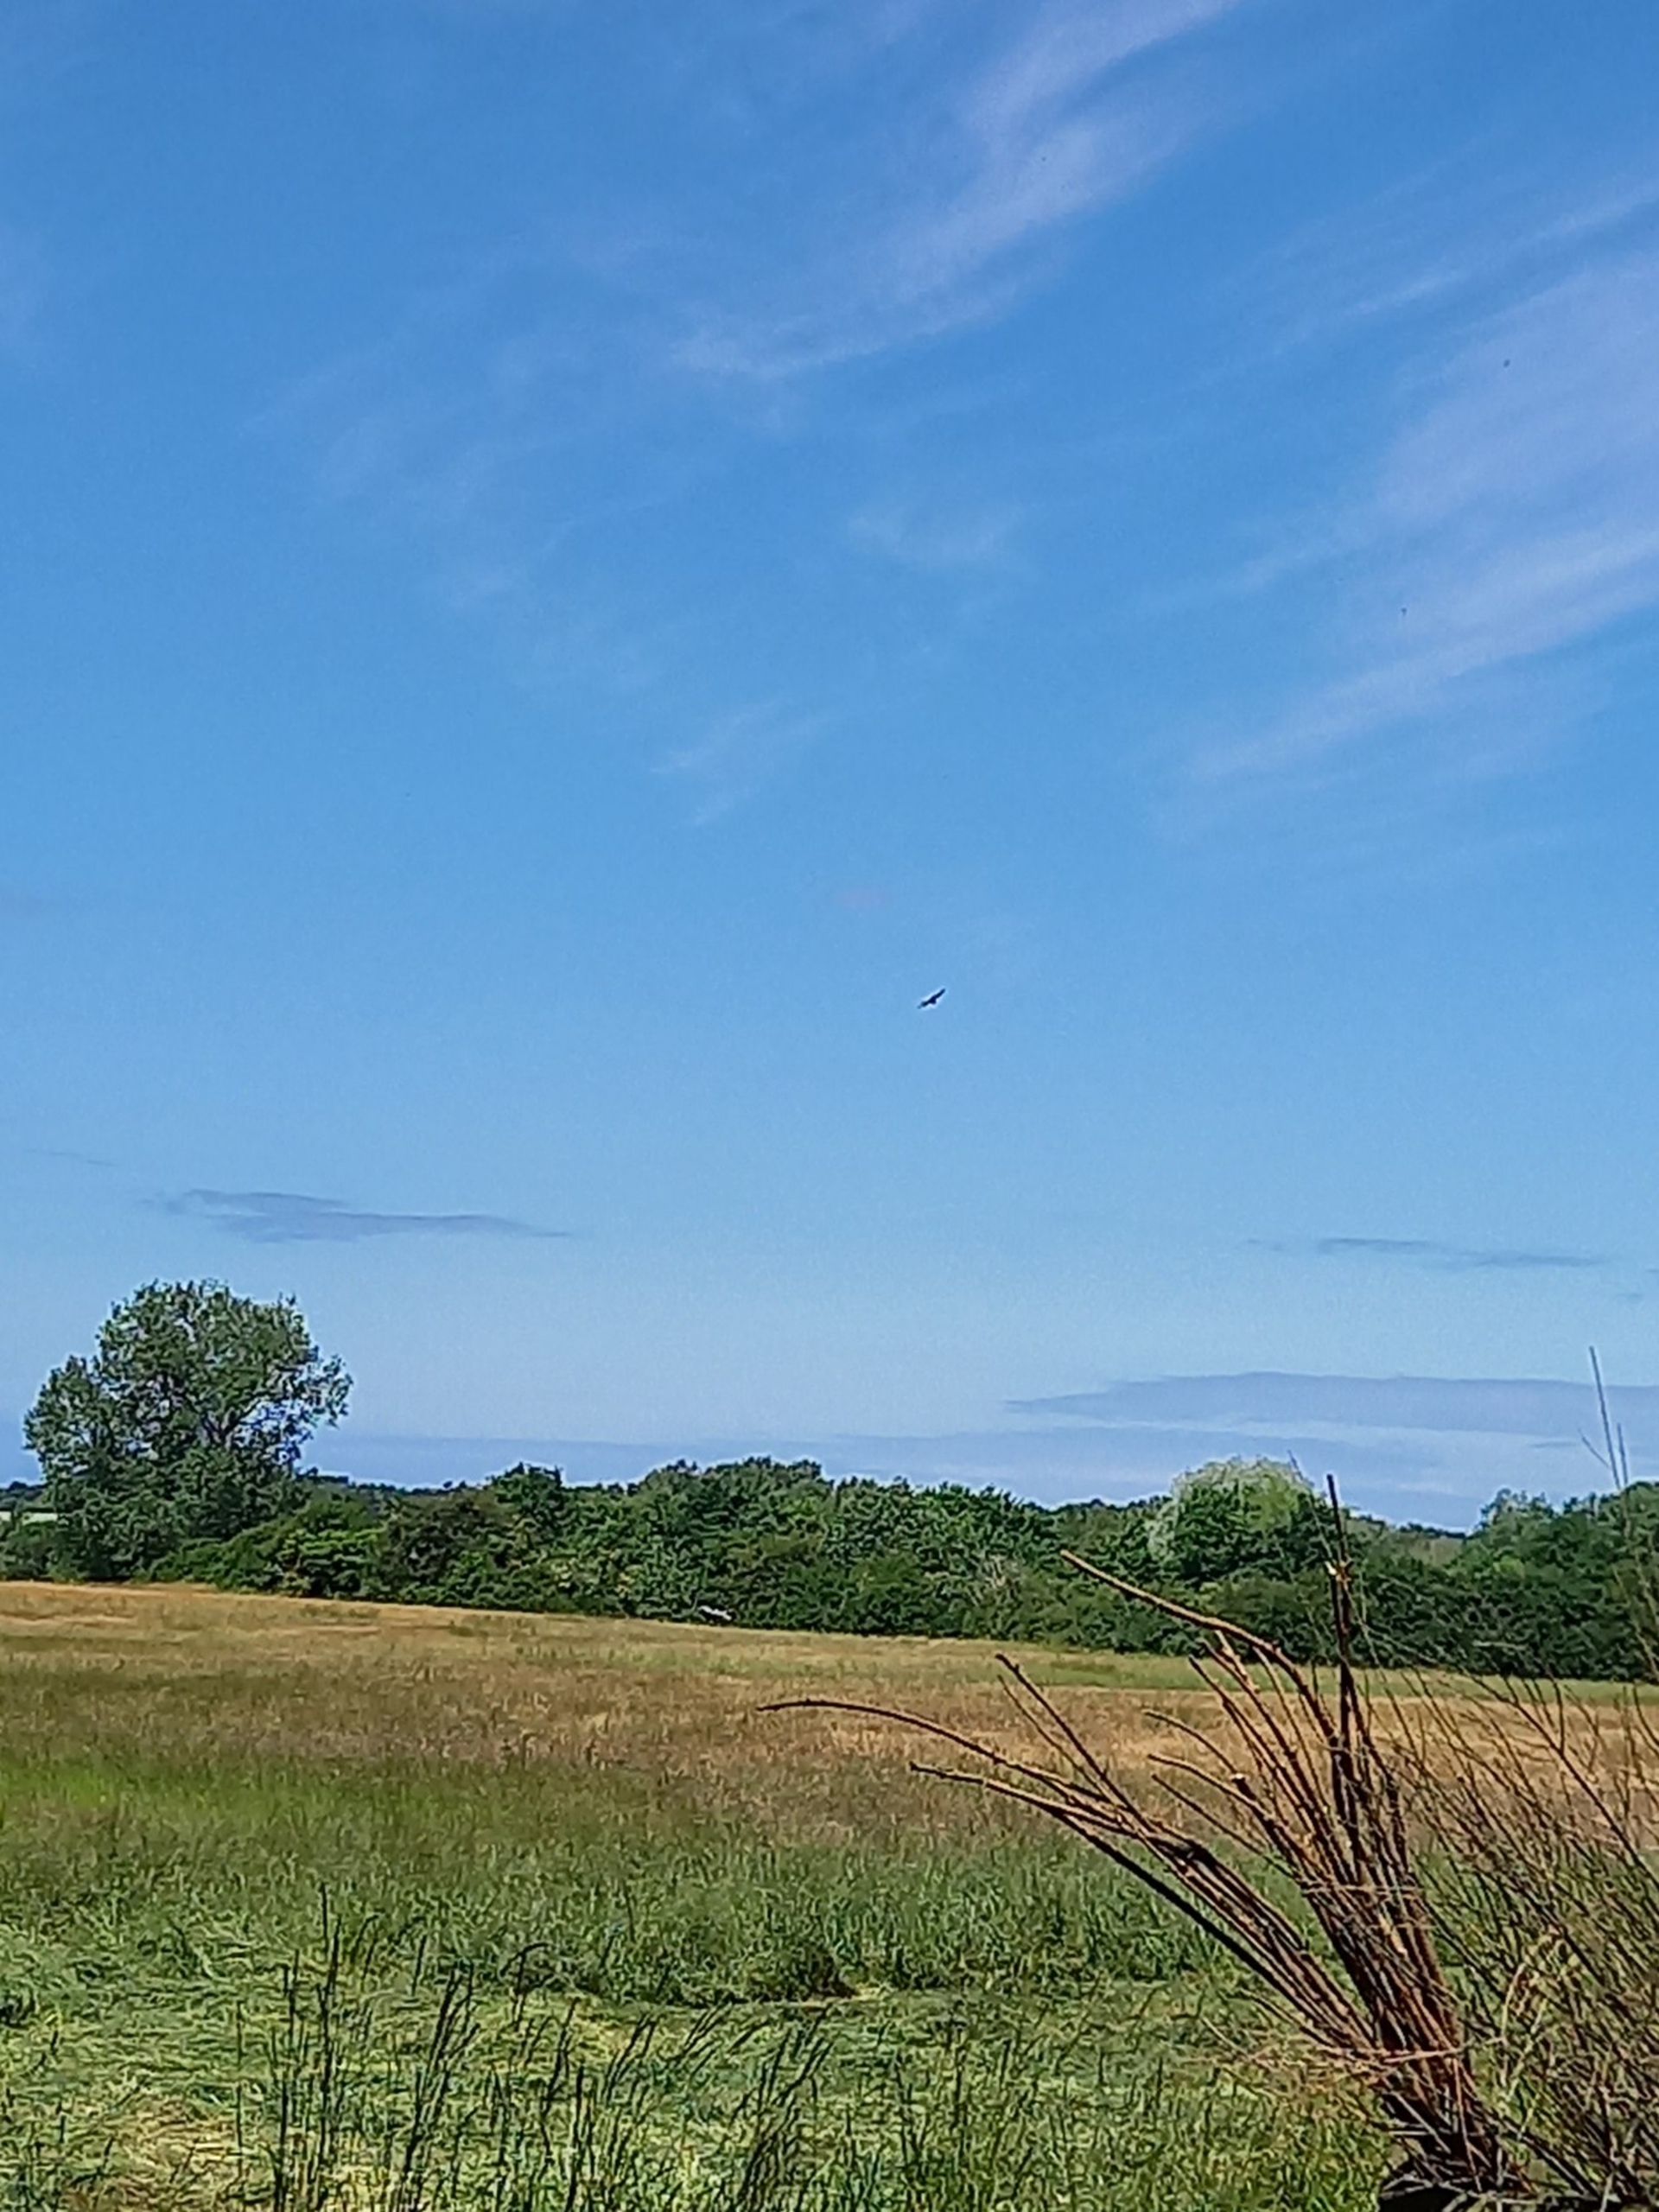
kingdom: Animalia
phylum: Chordata
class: Aves
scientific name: Aves
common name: Fugle
